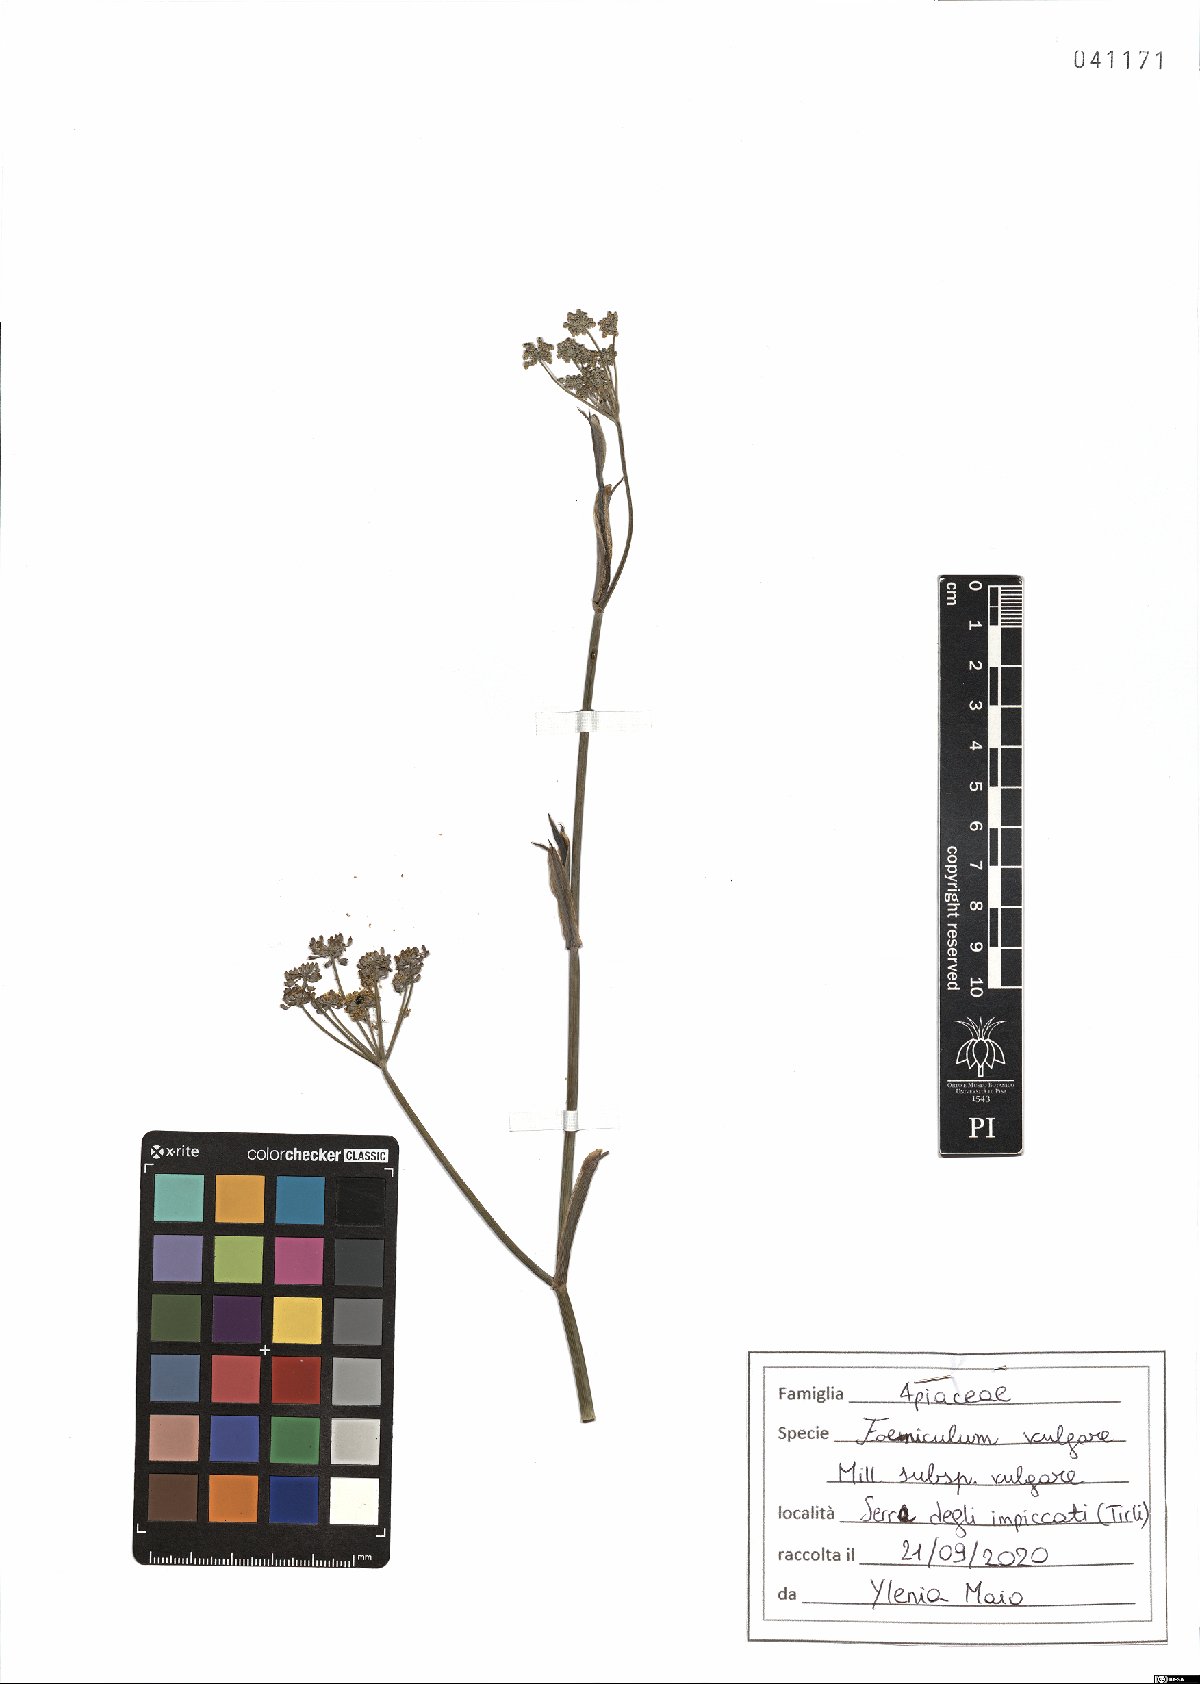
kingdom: Plantae
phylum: Tracheophyta
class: Magnoliopsida
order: Apiales
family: Apiaceae
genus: Foeniculum
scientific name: Foeniculum vulgare
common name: Fennel
